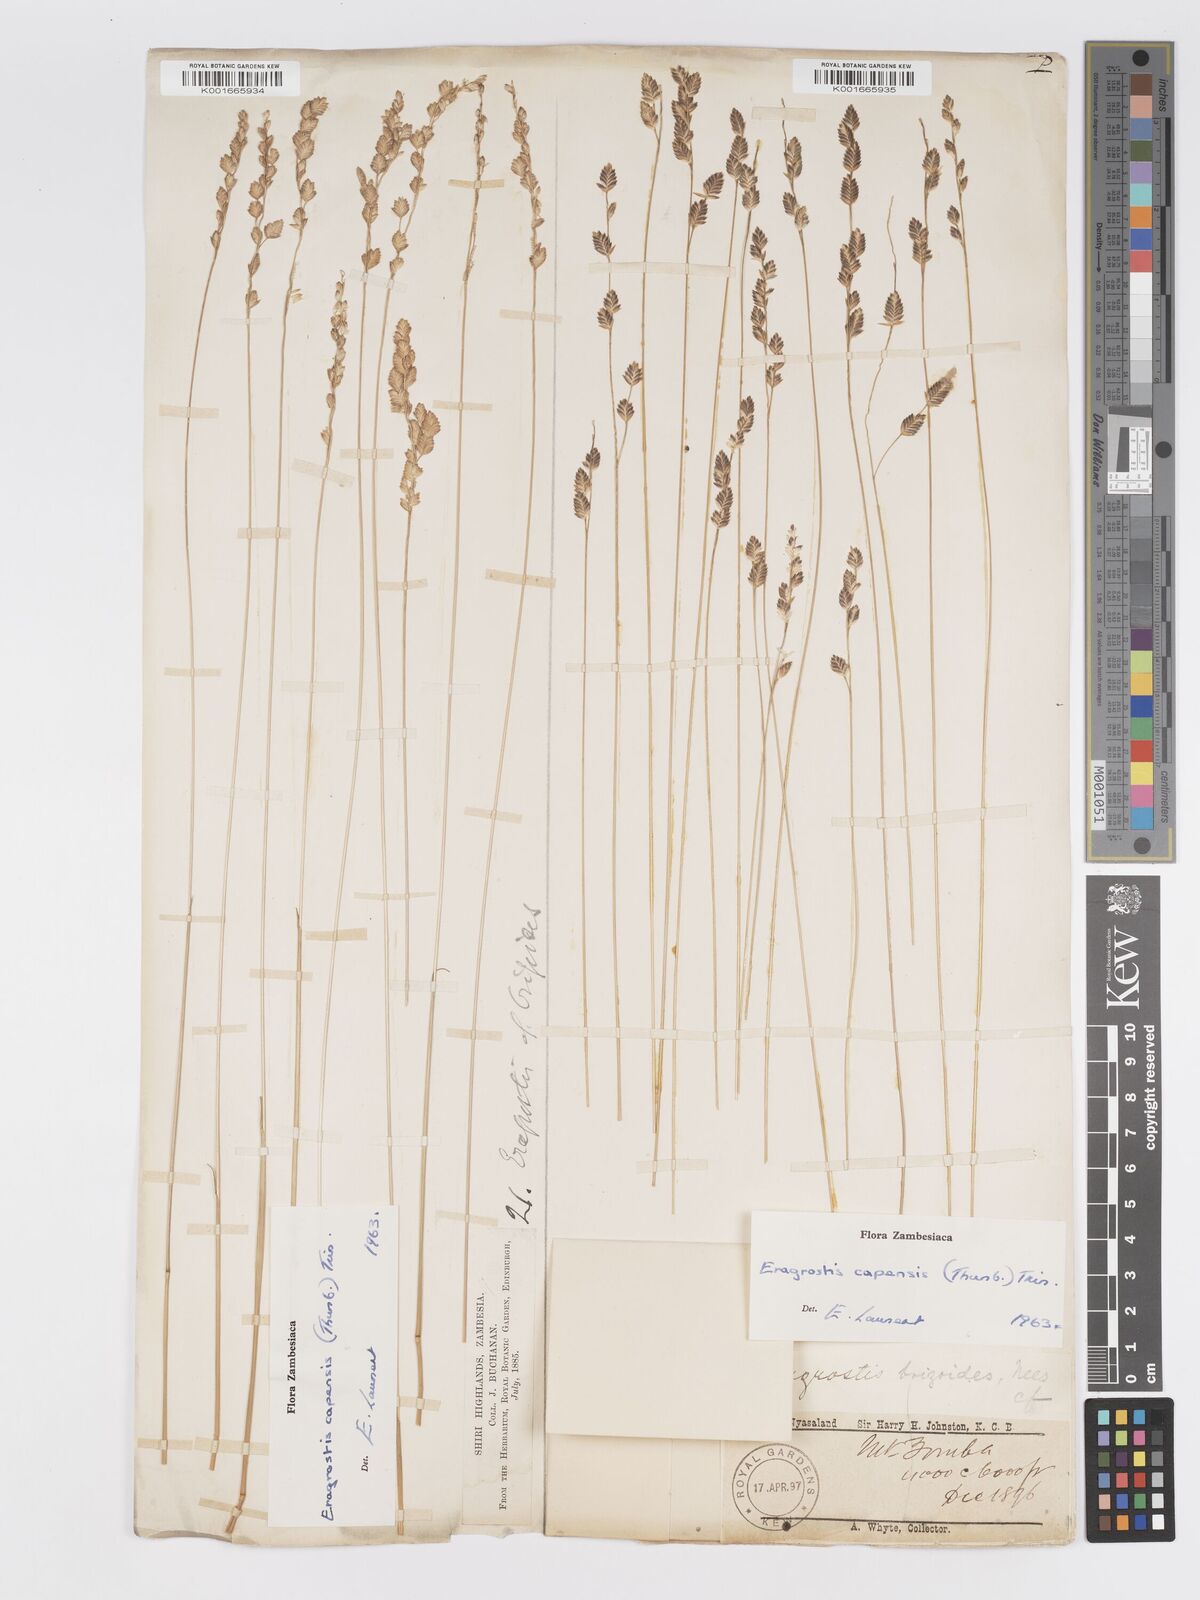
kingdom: Plantae
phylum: Tracheophyta
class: Liliopsida
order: Poales
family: Poaceae
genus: Eragrostis
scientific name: Eragrostis capensis
